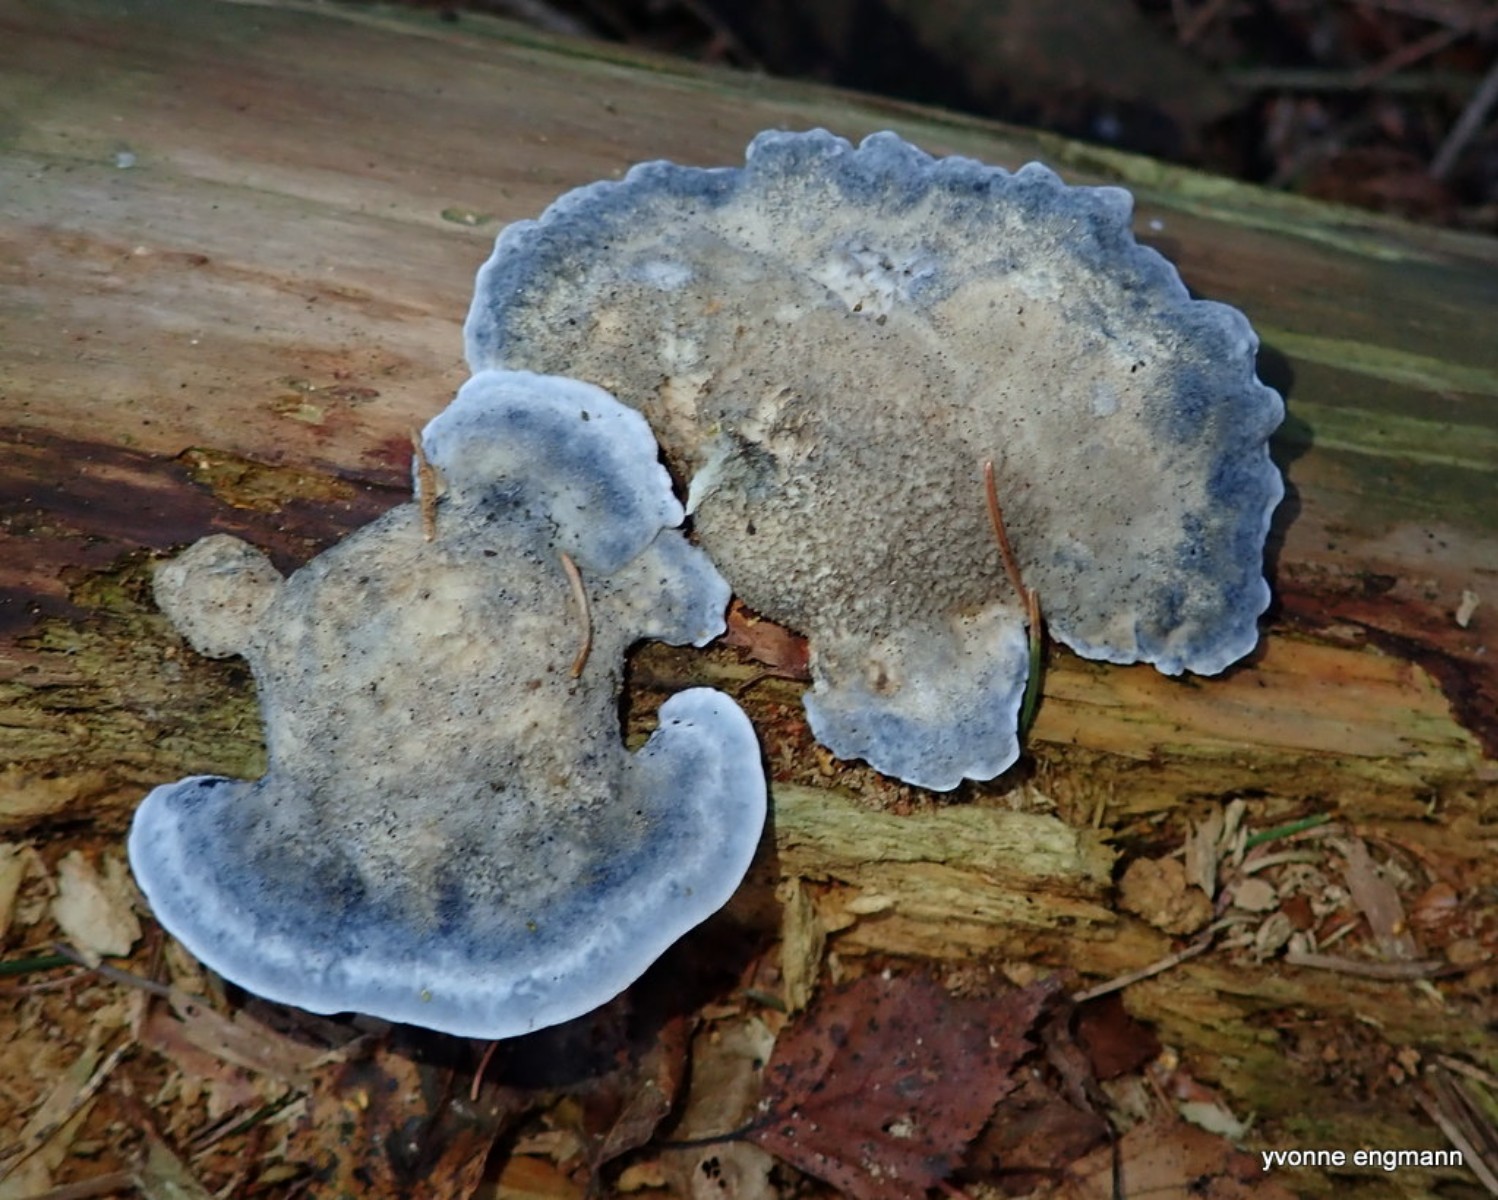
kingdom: Fungi
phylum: Basidiomycota
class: Agaricomycetes
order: Polyporales
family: Polyporaceae
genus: Cyanosporus
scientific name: Cyanosporus caesius
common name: blålig kødporesvamp
